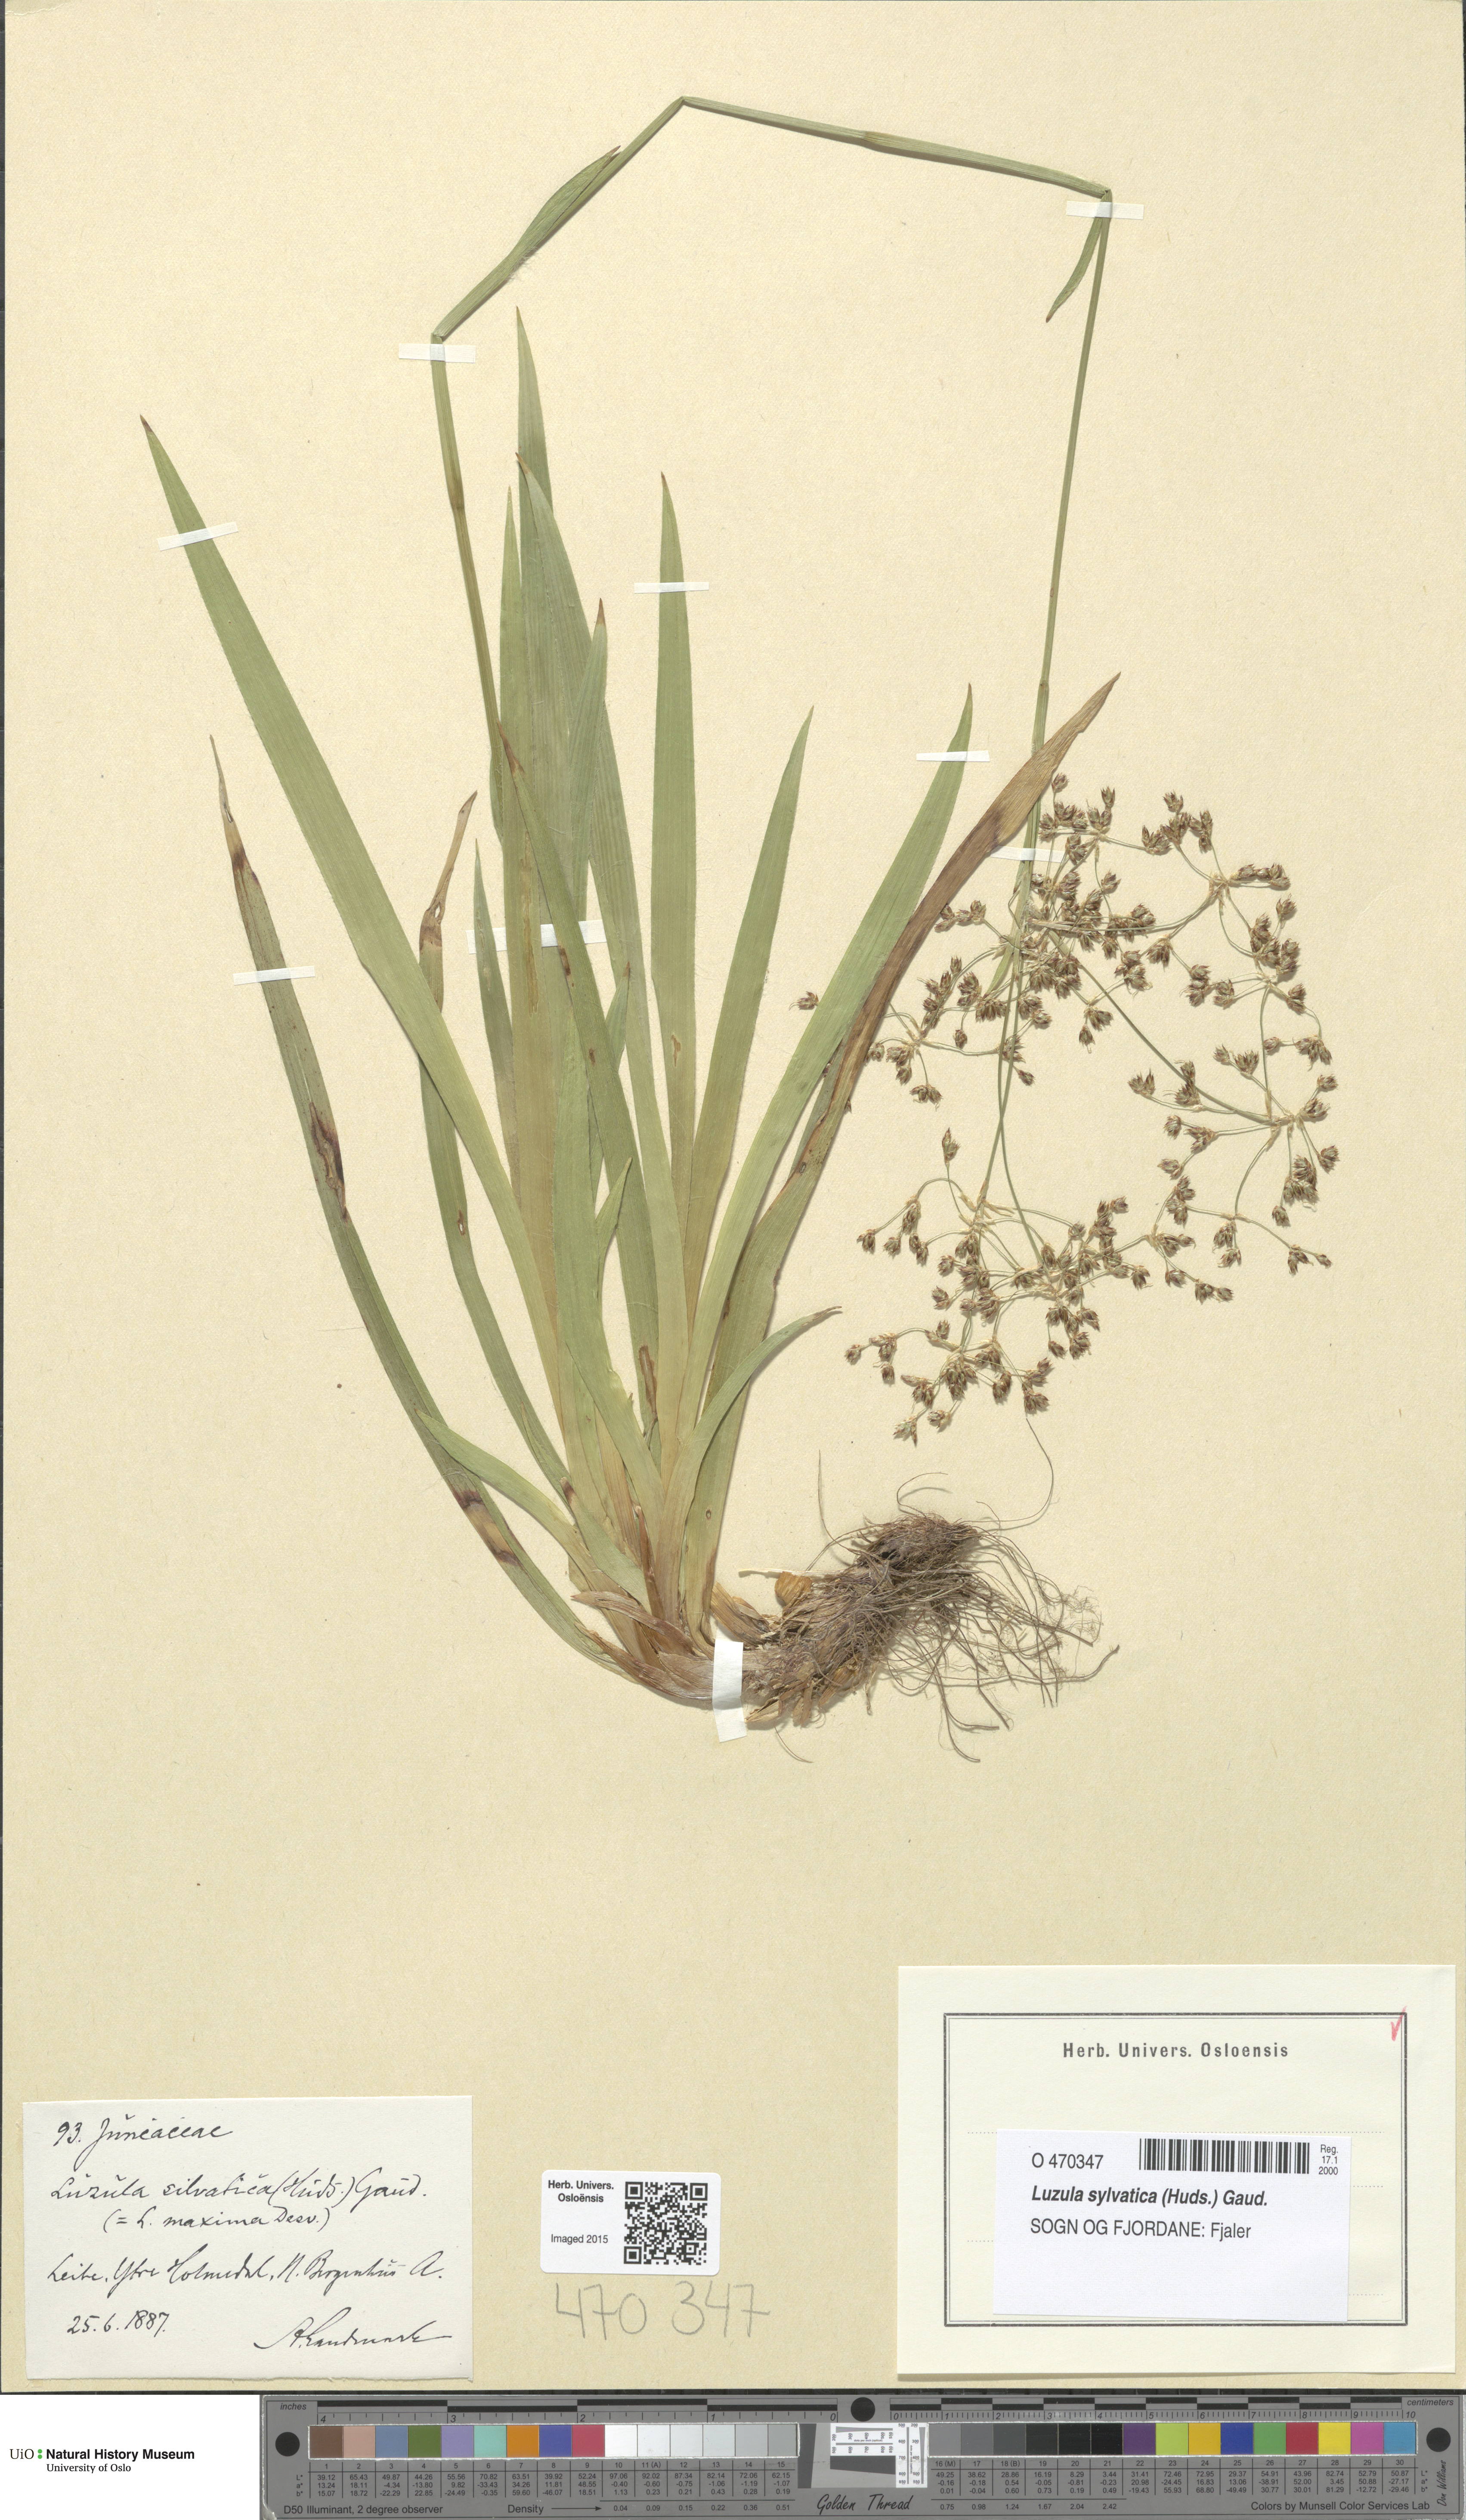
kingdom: Plantae
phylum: Tracheophyta
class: Liliopsida
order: Poales
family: Juncaceae
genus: Luzula
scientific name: Luzula sylvatica
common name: Great wood-rush
